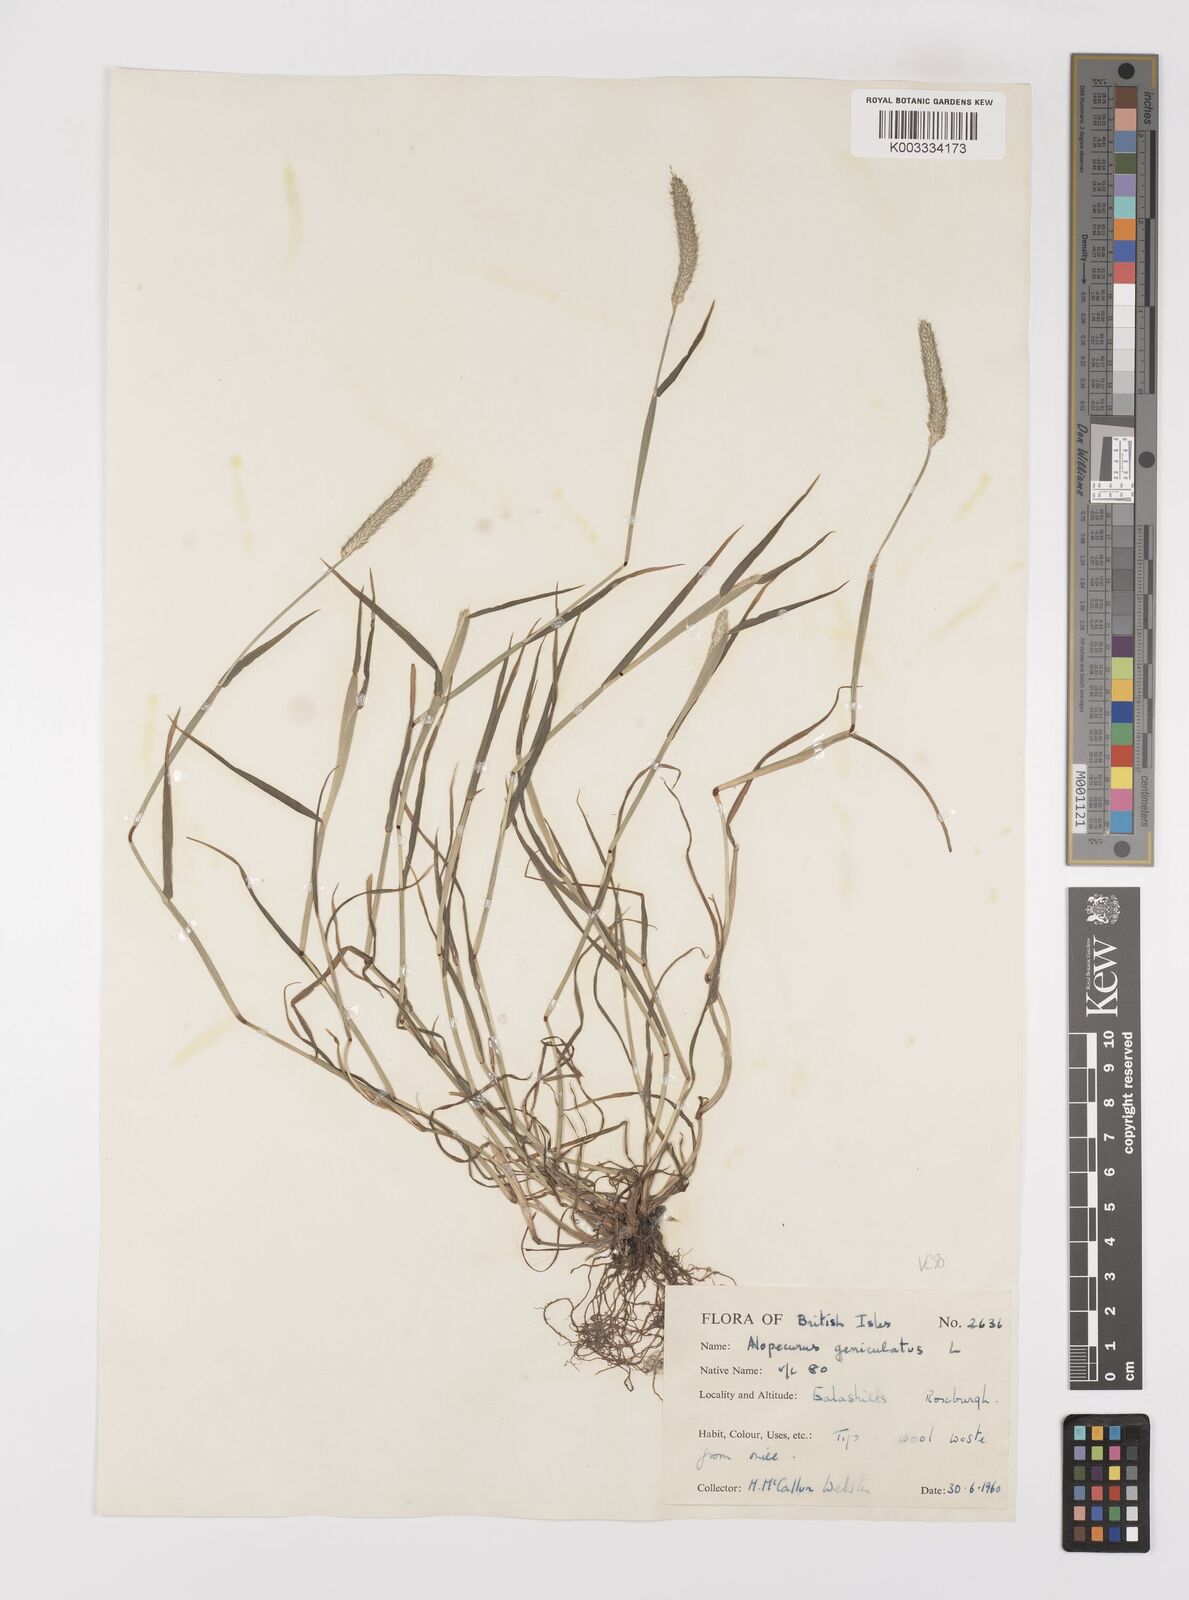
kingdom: Plantae
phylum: Tracheophyta
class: Liliopsida
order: Poales
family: Poaceae
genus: Alopecurus
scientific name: Alopecurus geniculatus
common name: Water foxtail
